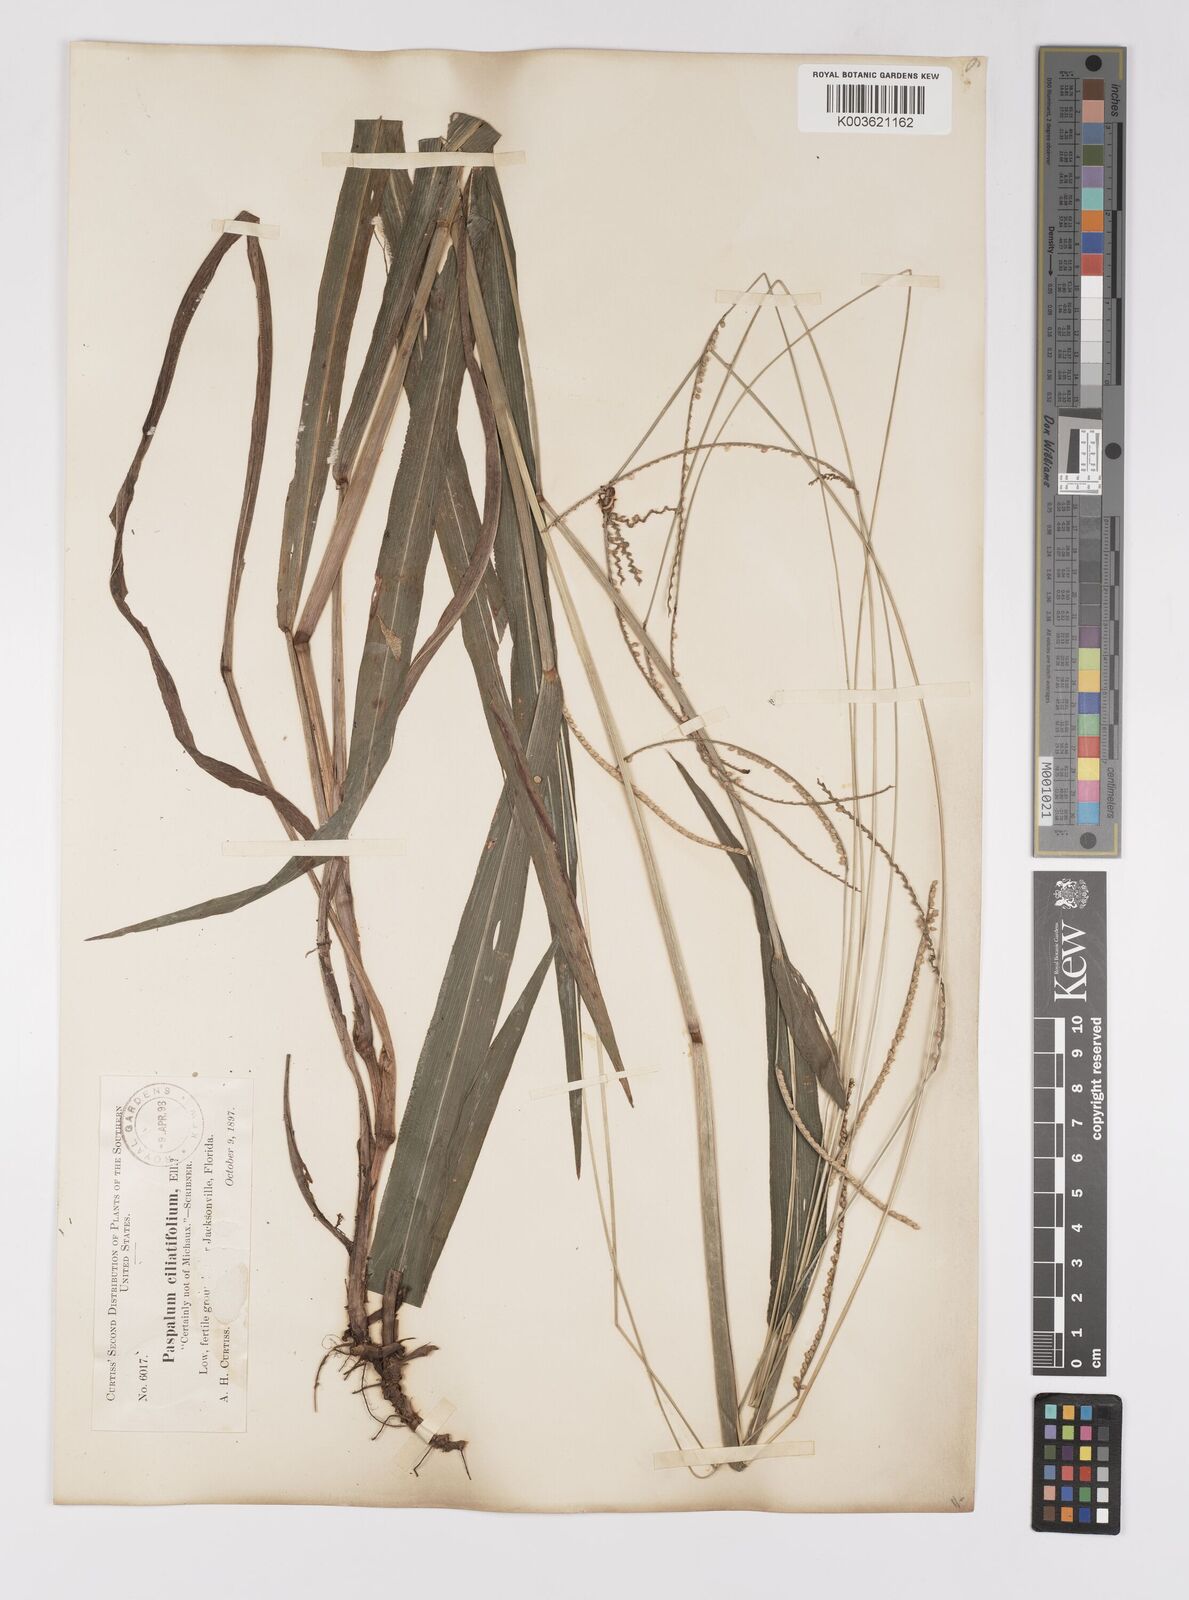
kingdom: Plantae
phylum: Tracheophyta
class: Liliopsida
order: Poales
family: Poaceae
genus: Paspalum
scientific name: Paspalum setaceum
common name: Slender paspalum
